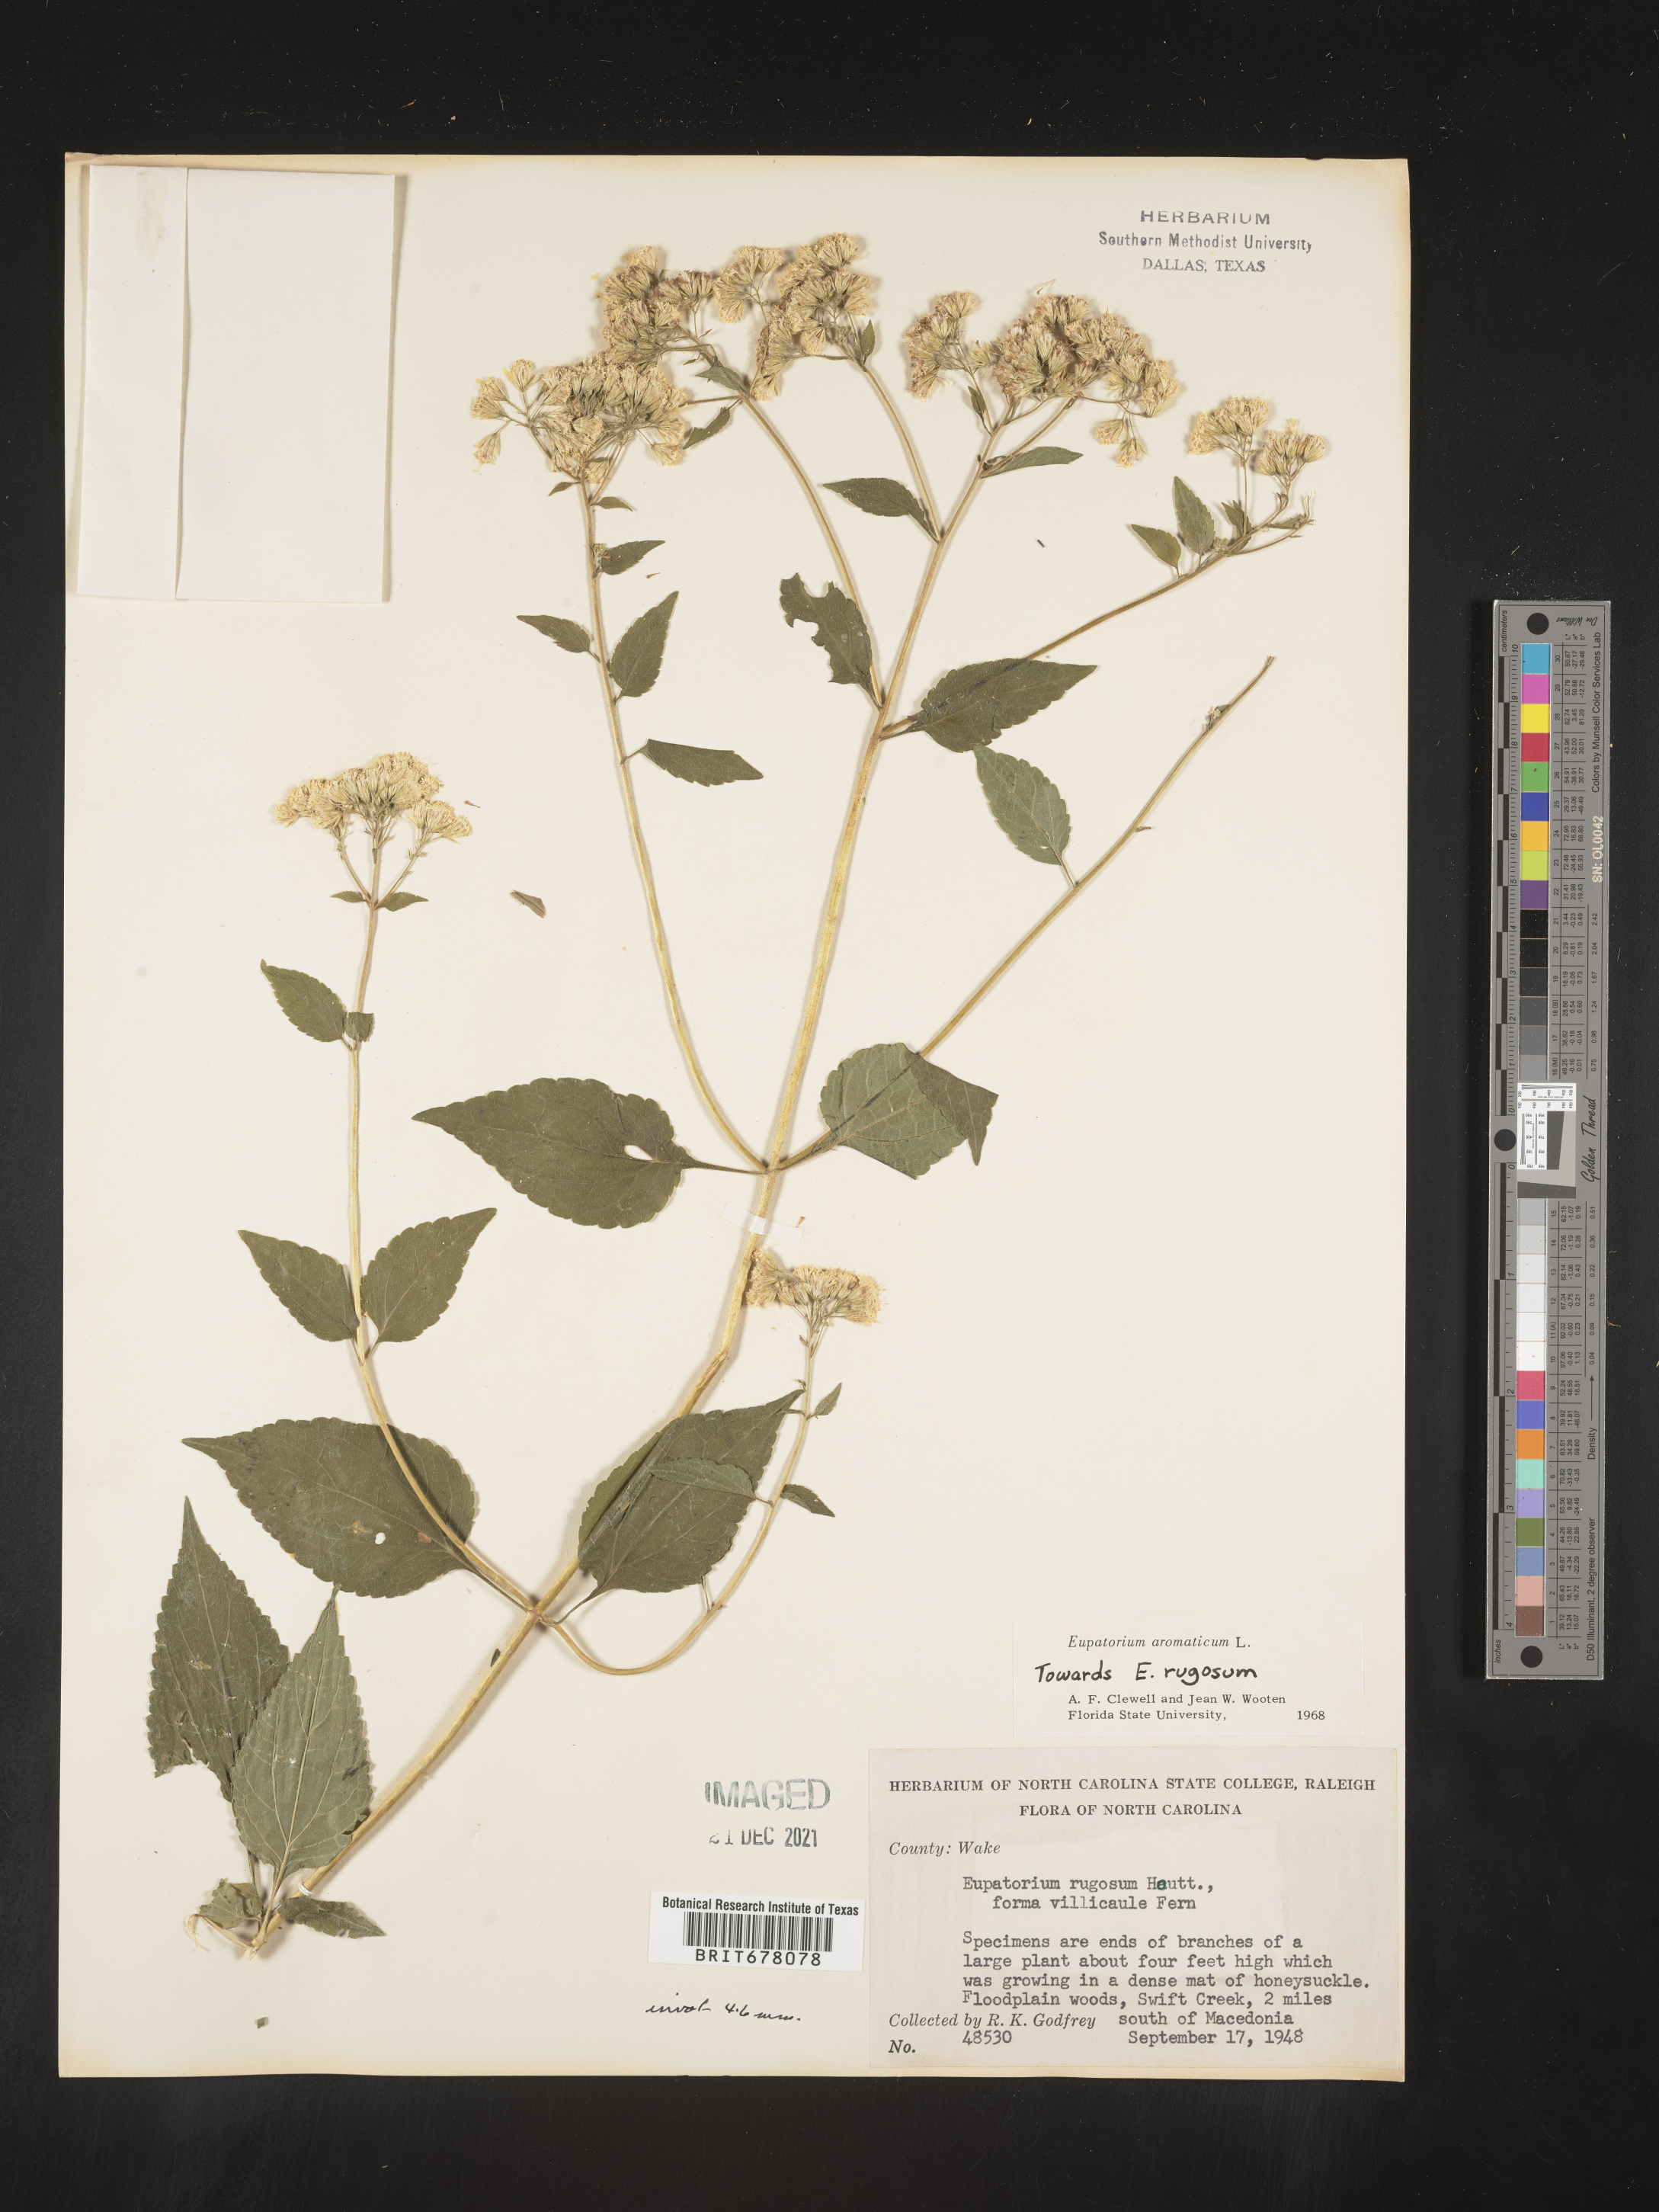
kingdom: Plantae
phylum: Tracheophyta
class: Magnoliopsida
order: Asterales
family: Asteraceae
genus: Eupatorium
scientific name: Eupatorium
